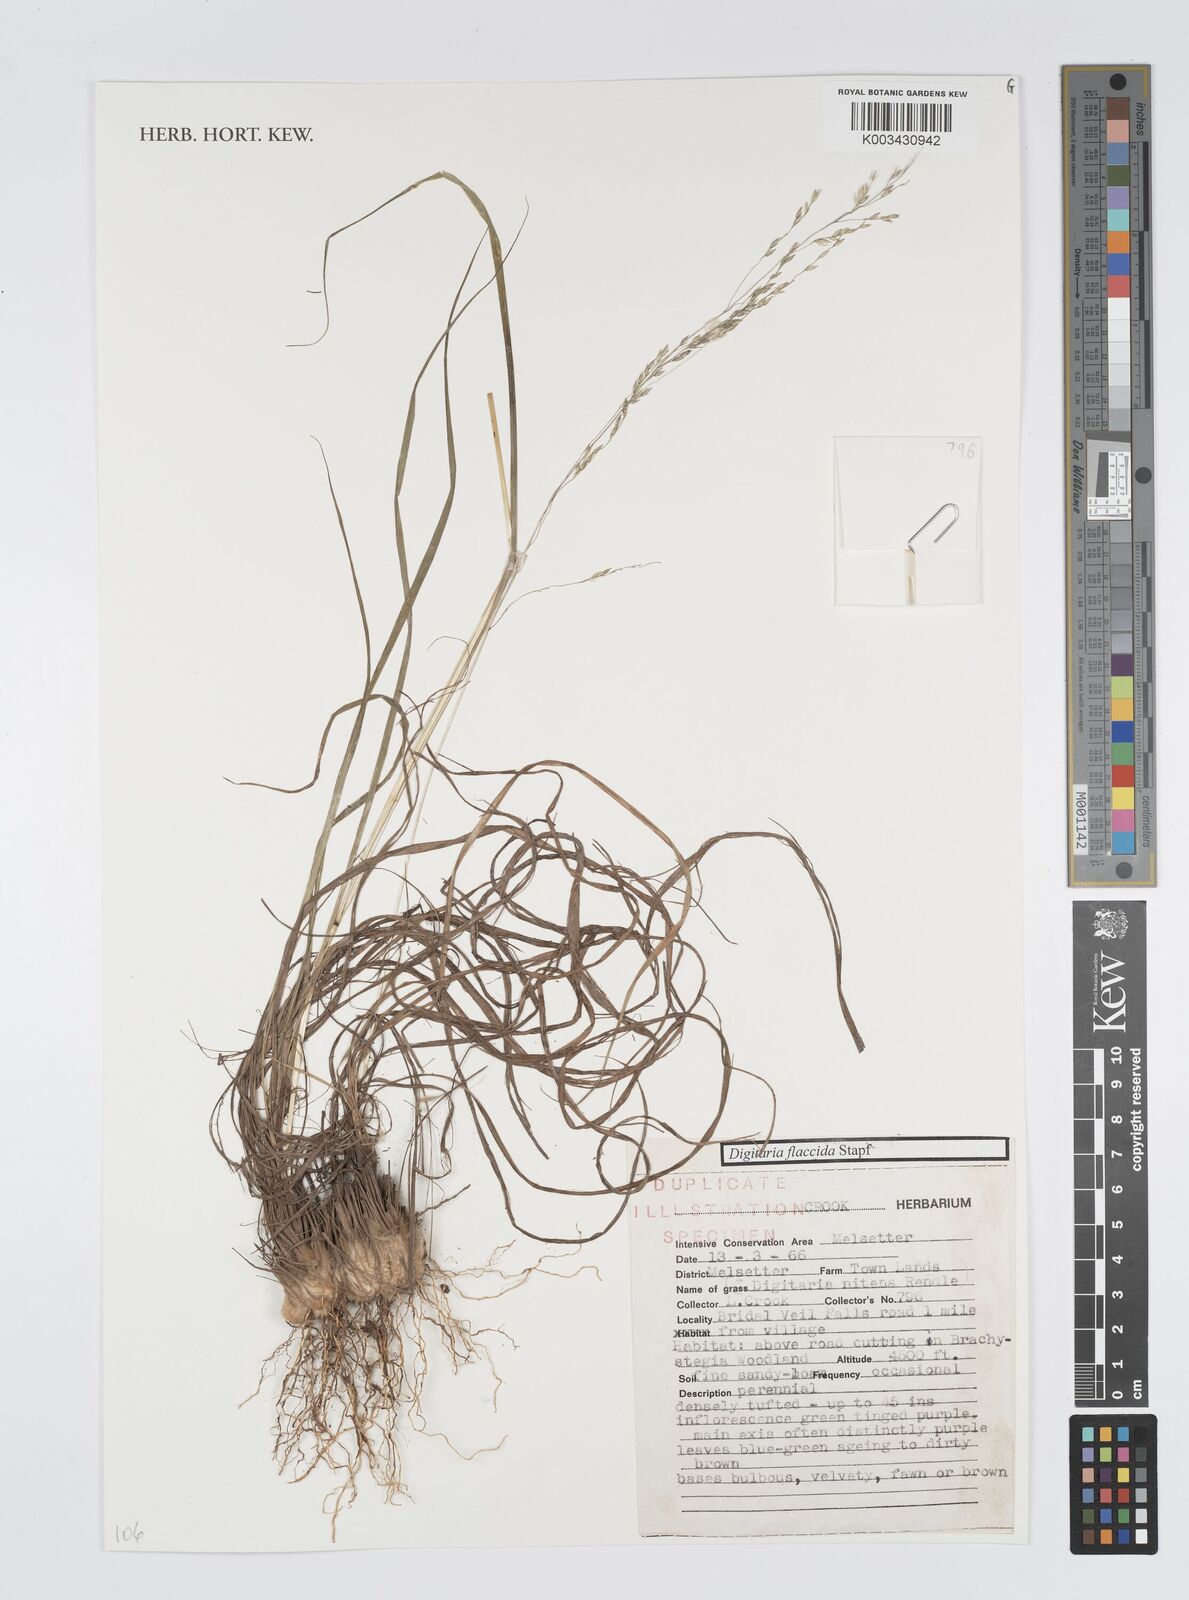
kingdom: Plantae
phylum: Tracheophyta
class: Liliopsida
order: Poales
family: Poaceae
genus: Digitaria
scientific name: Digitaria flaccida
